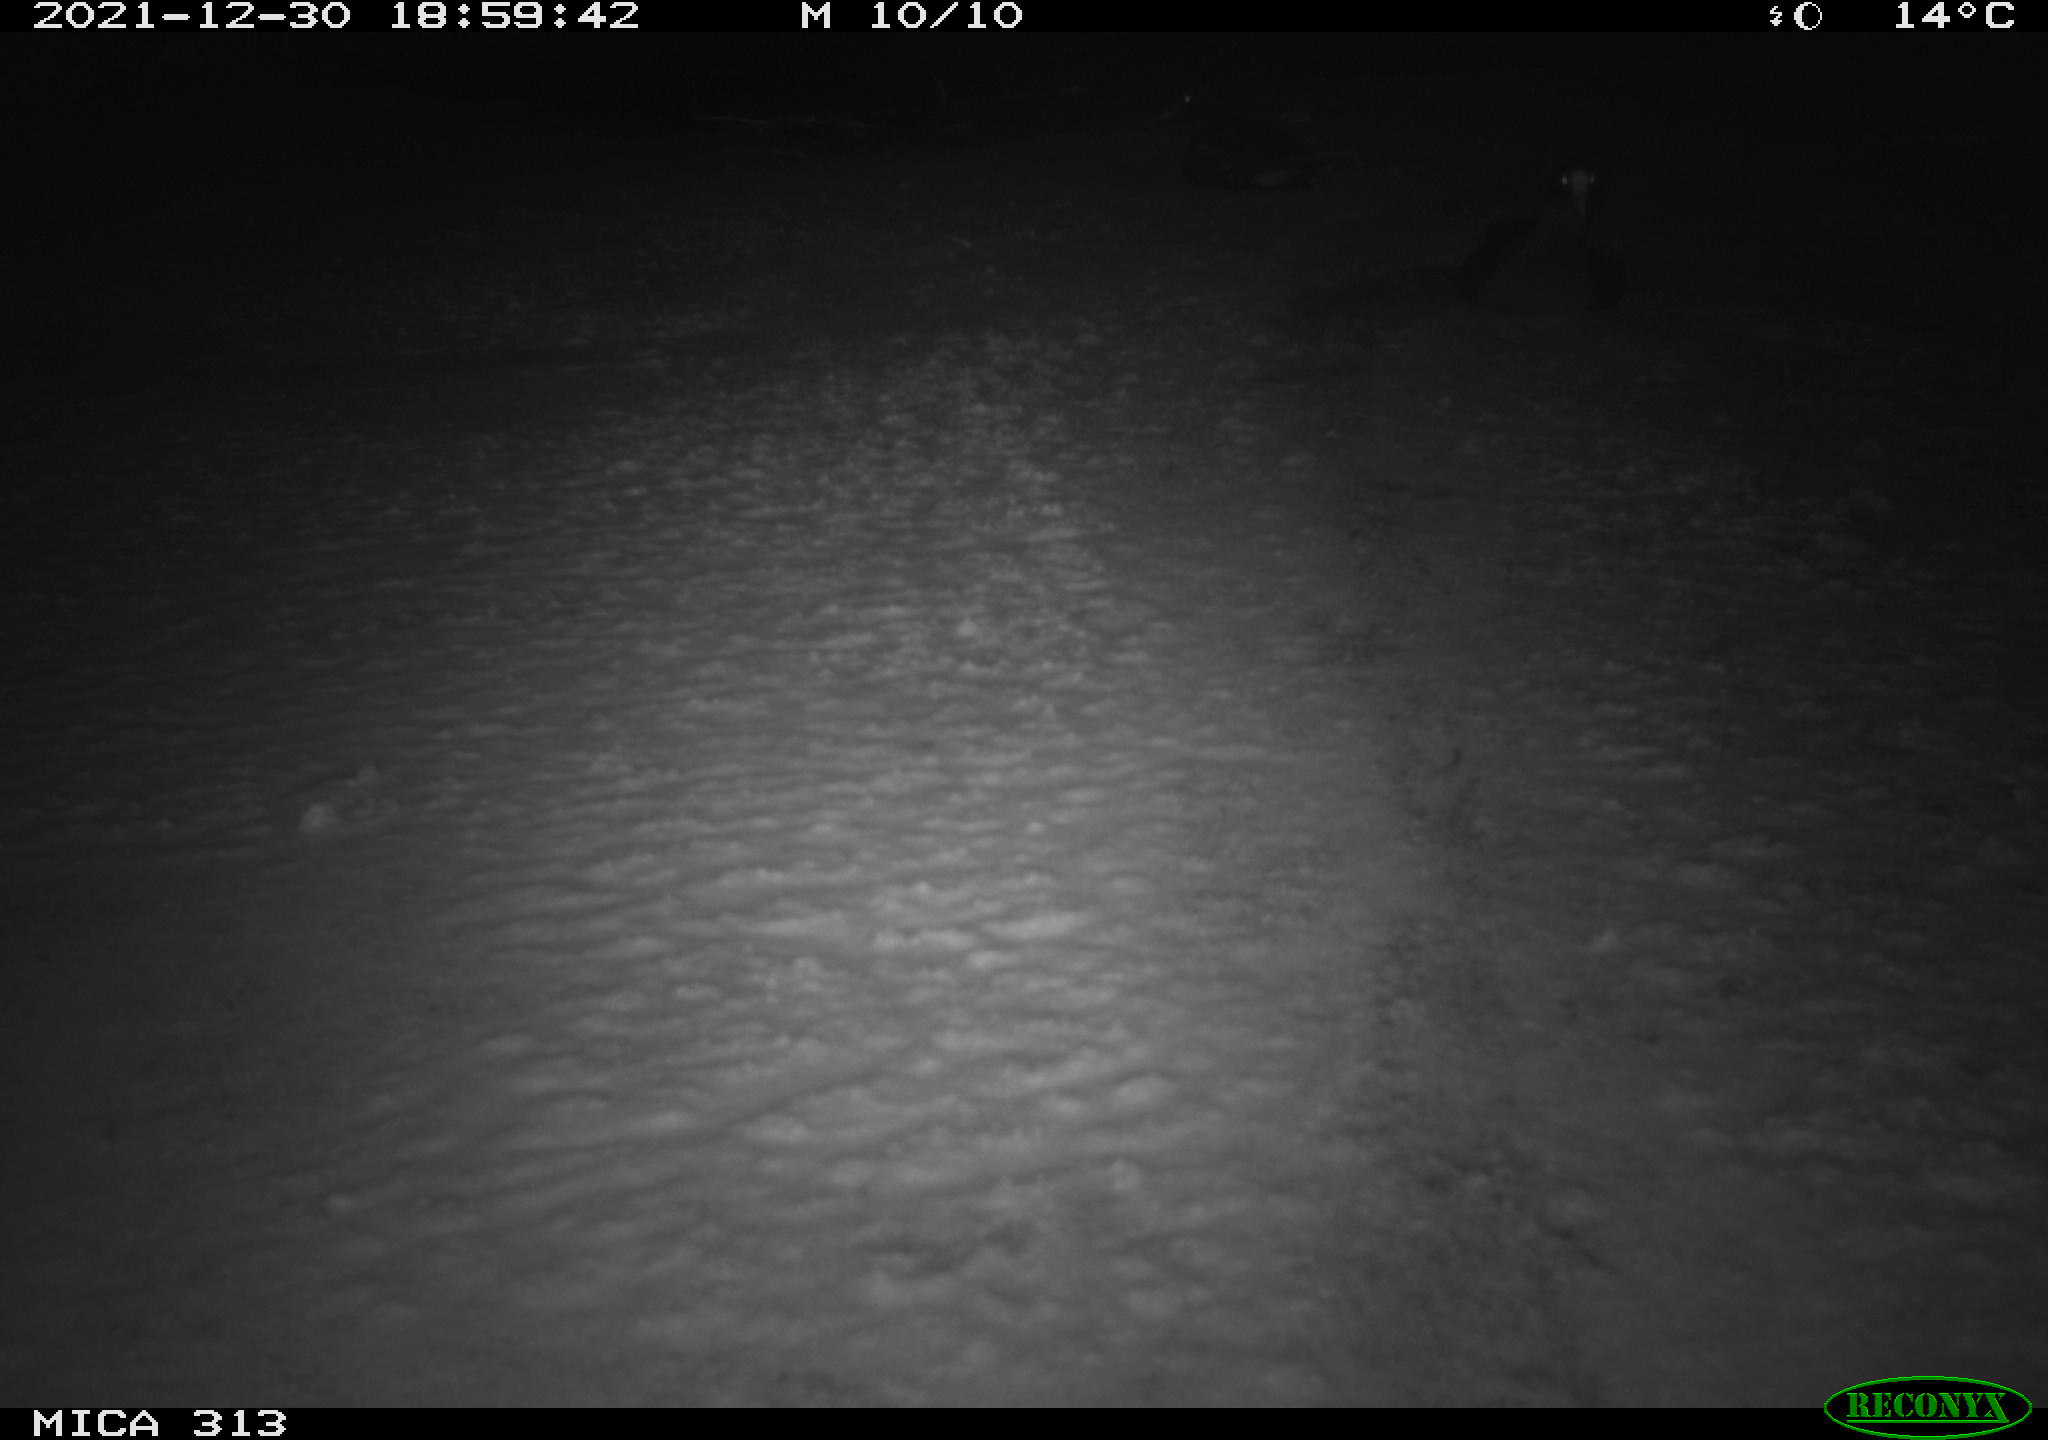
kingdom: Animalia
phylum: Chordata
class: Aves
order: Gruiformes
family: Rallidae
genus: Gallinula
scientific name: Gallinula chloropus
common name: Common moorhen
